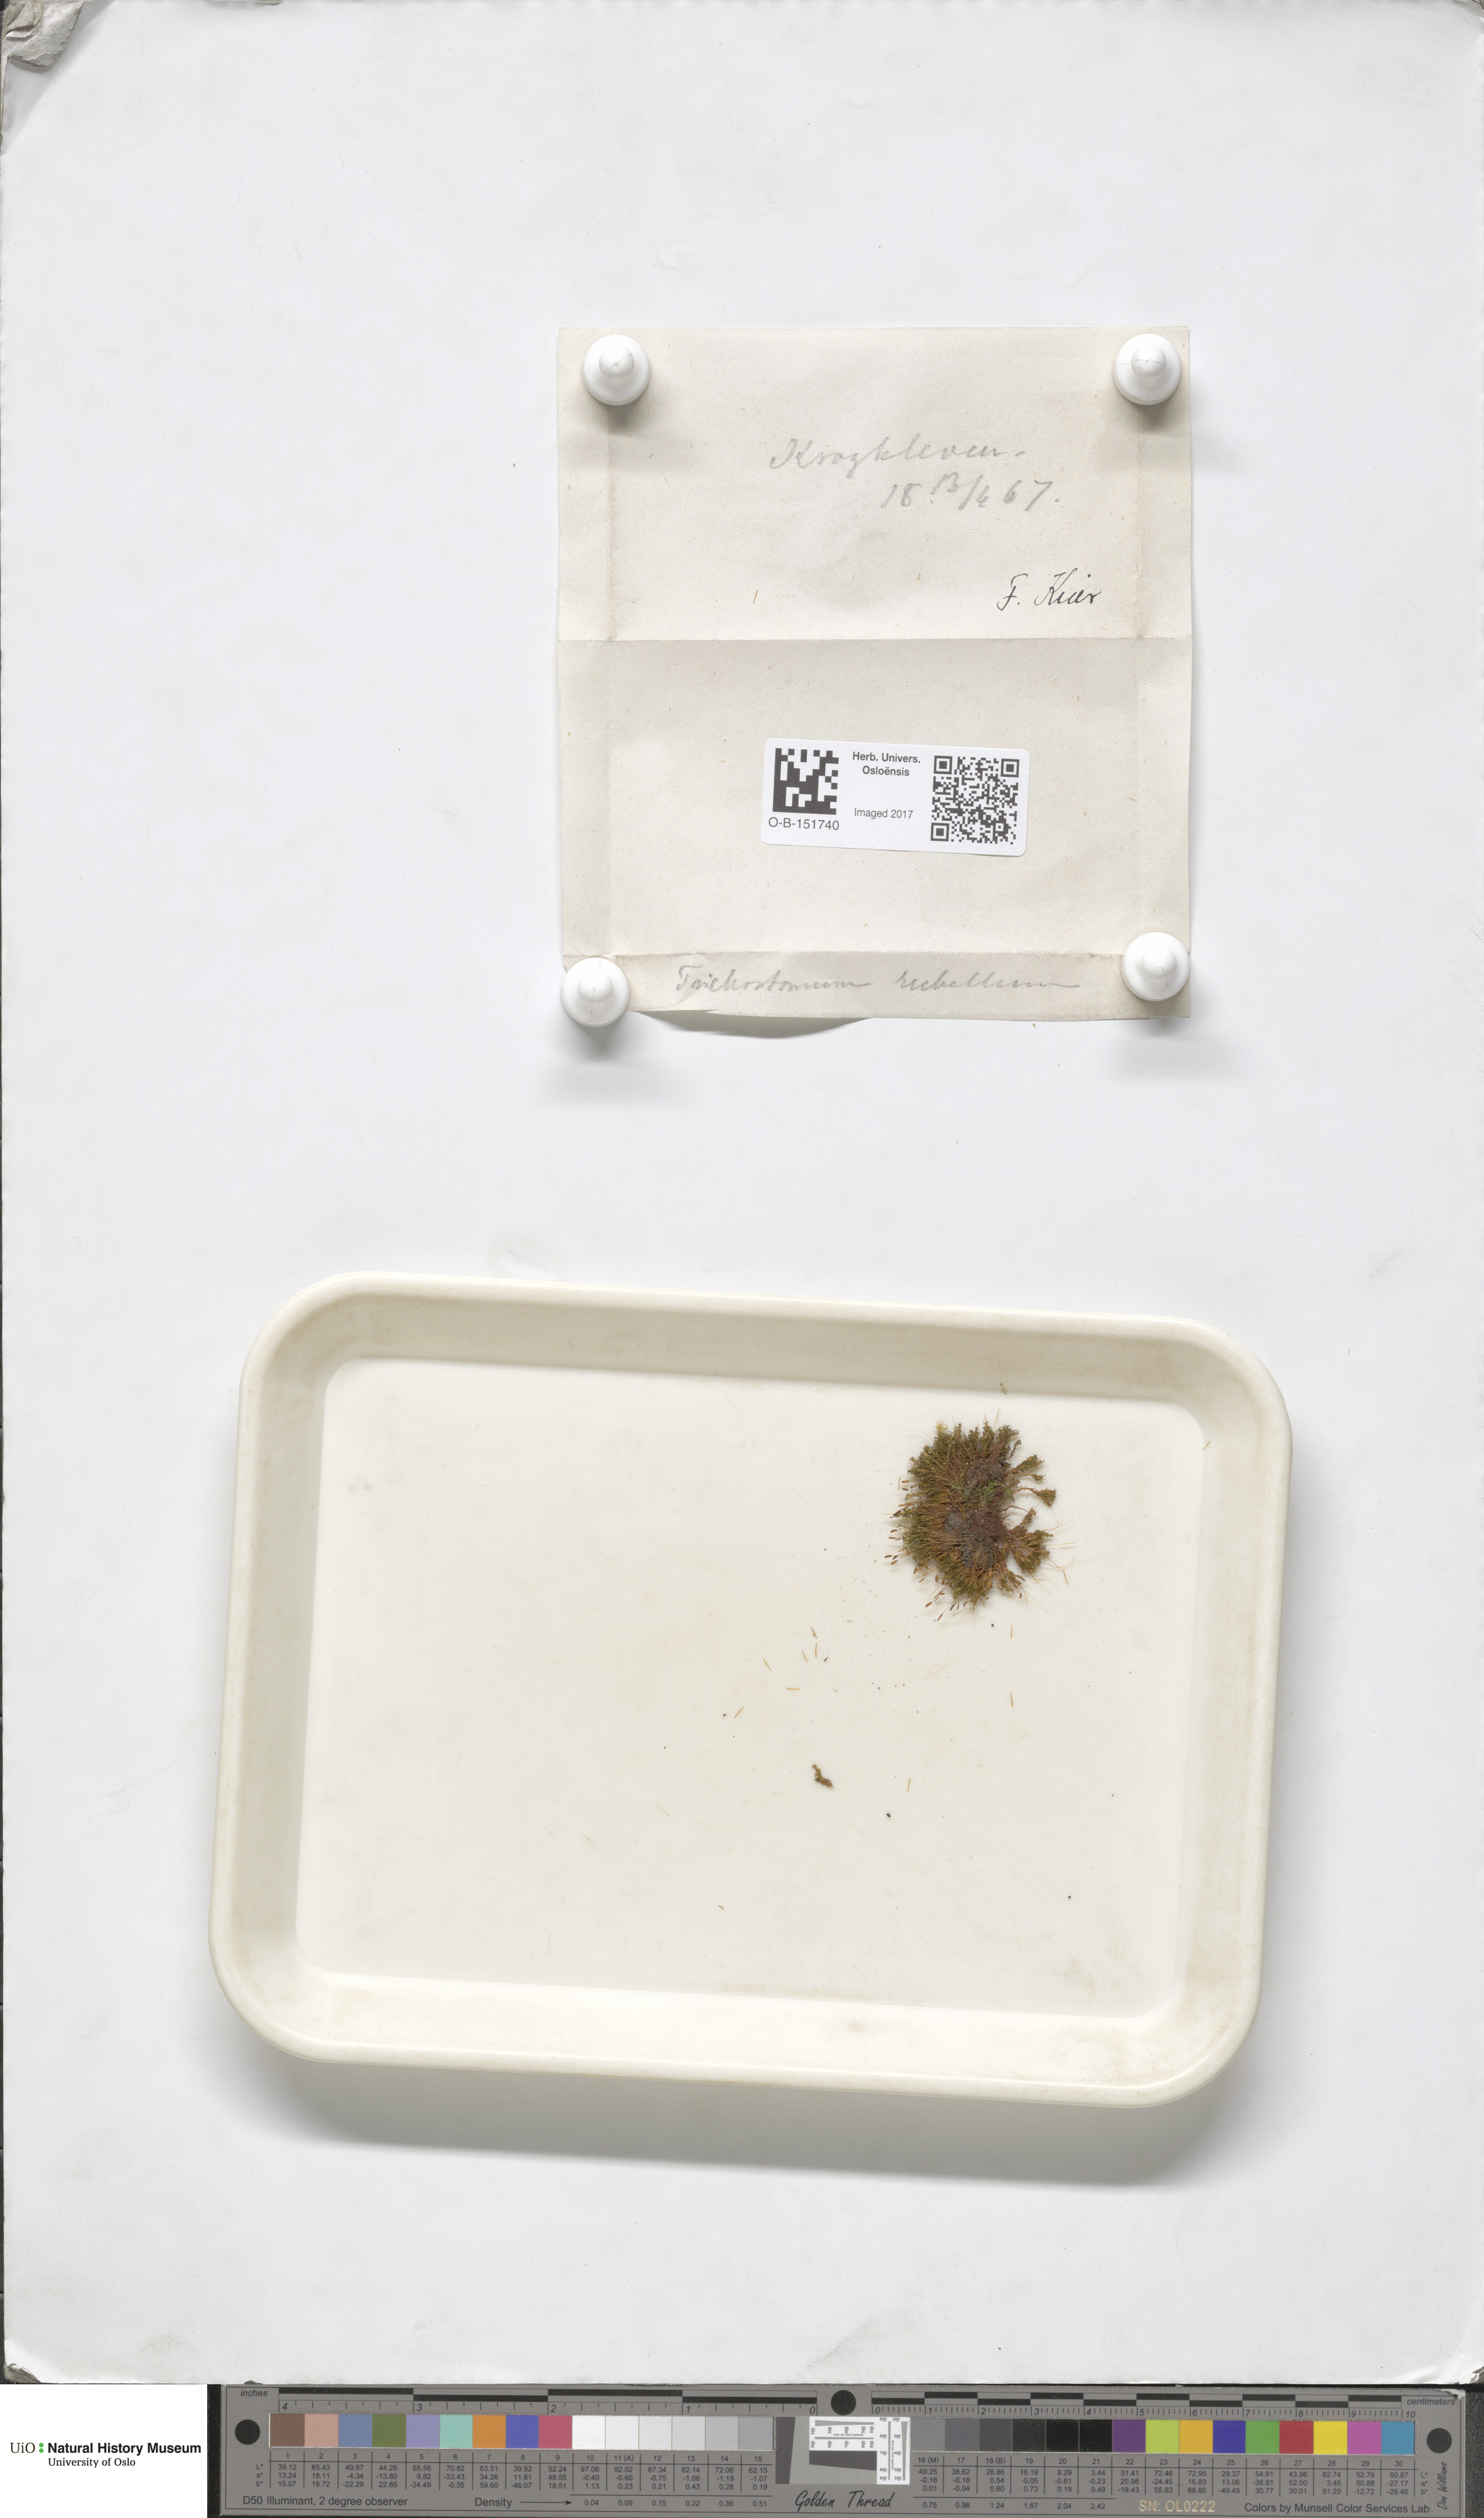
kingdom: Plantae
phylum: Bryophyta
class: Bryopsida
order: Pottiales
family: Pottiaceae
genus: Bryoerythrophyllum
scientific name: Bryoerythrophyllum recurvirostrum
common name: Red beard moss
